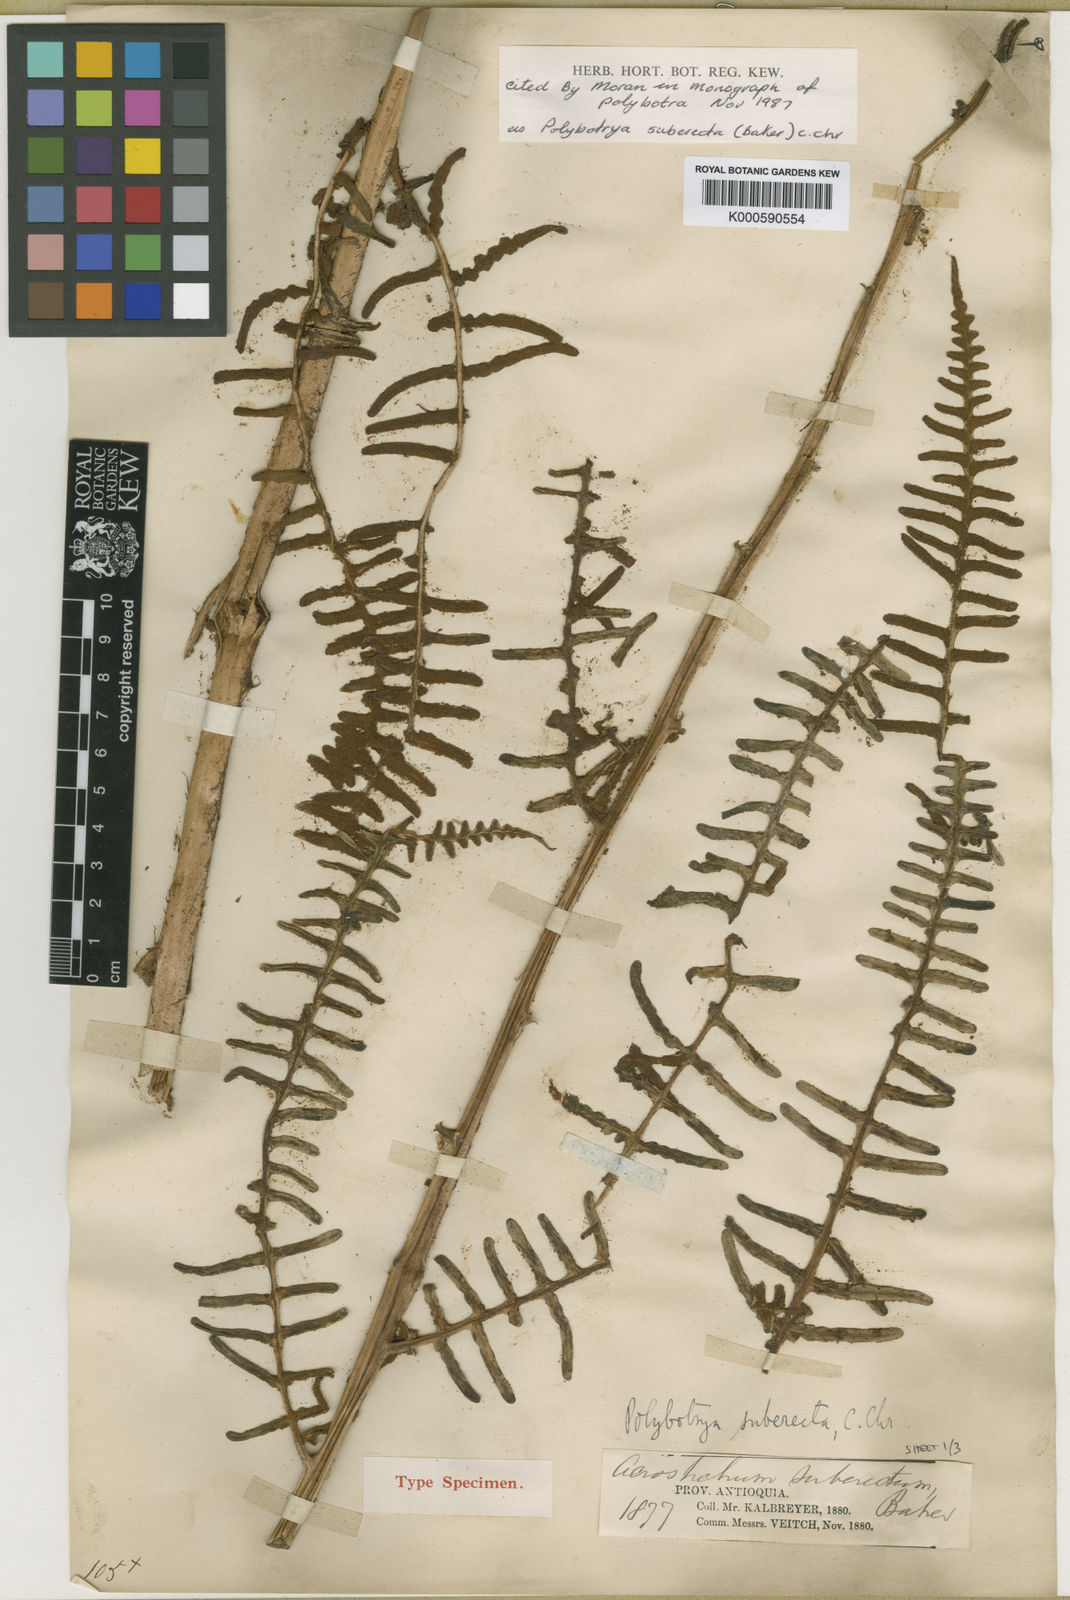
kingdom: Plantae
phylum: Tracheophyta
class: Polypodiopsida
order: Polypodiales
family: Dryopteridaceae
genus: Polybotrya
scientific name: Polybotrya suberecta
